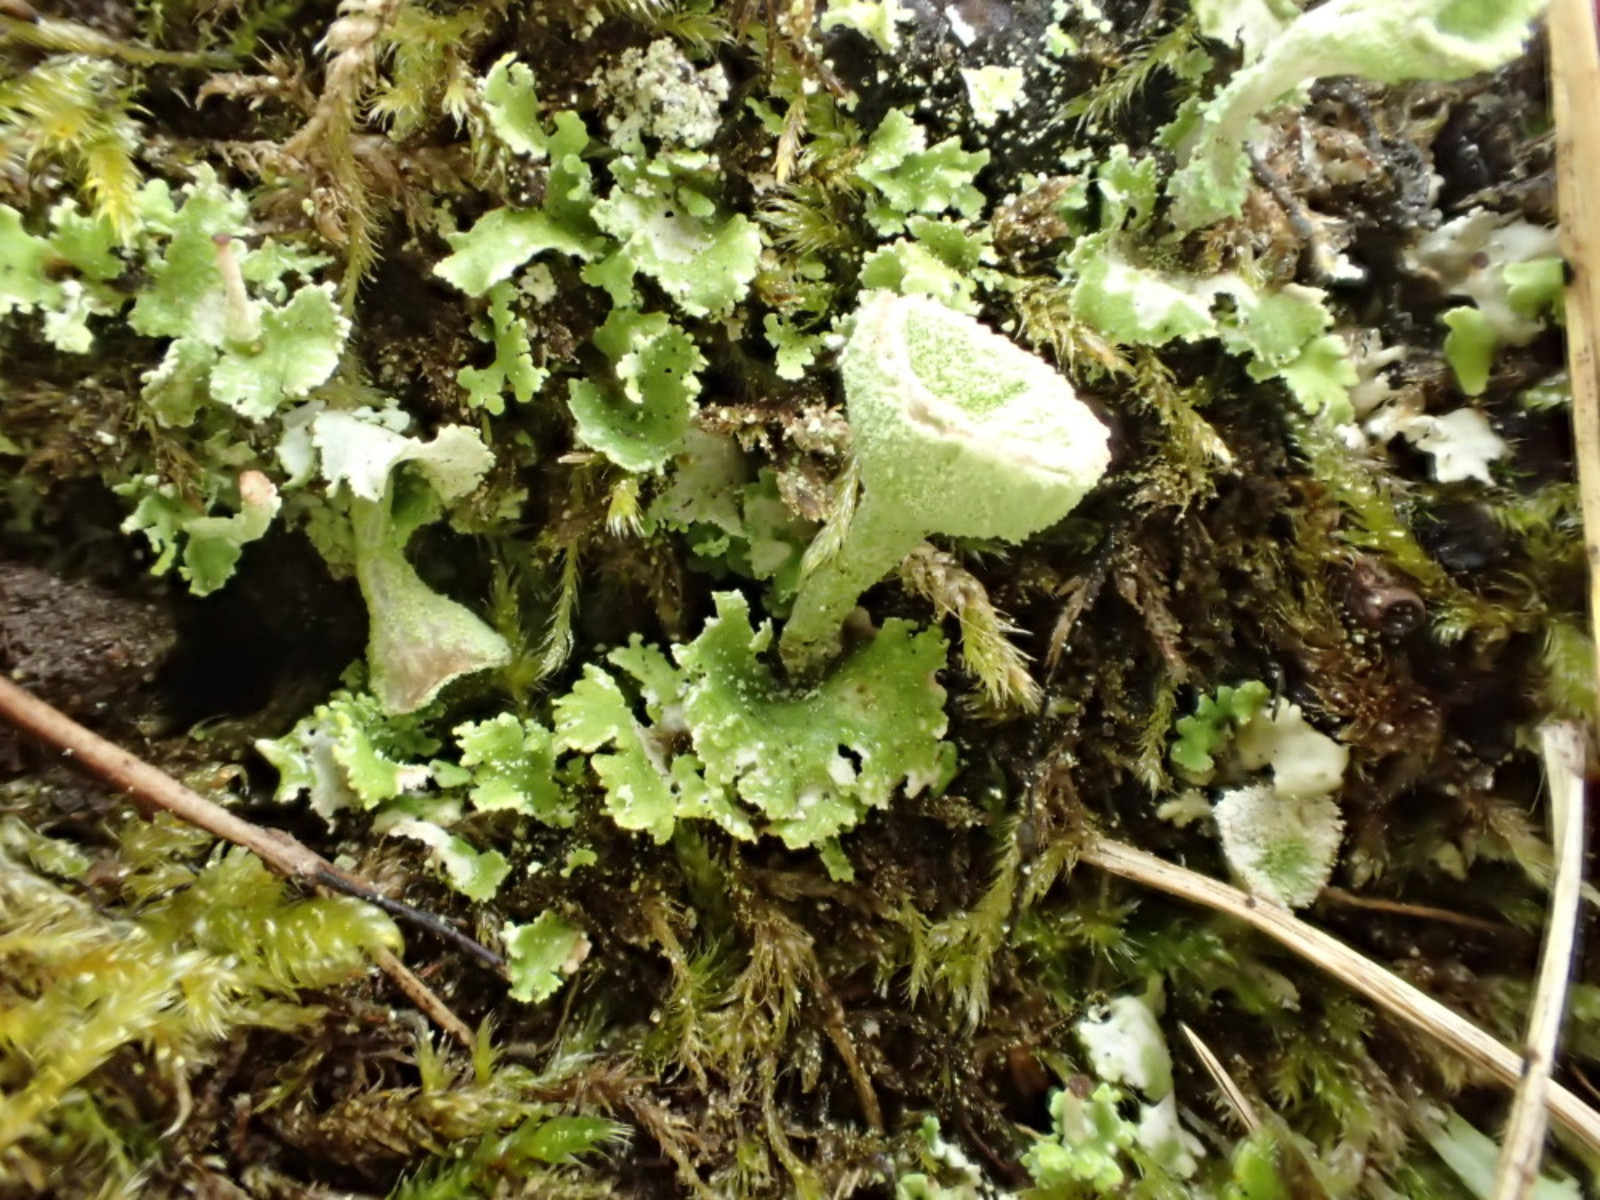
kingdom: Fungi
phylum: Ascomycota
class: Lecanoromycetes
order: Lecanorales
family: Cladoniaceae
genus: Cladonia
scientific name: Cladonia humilis
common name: lav bægerlav
